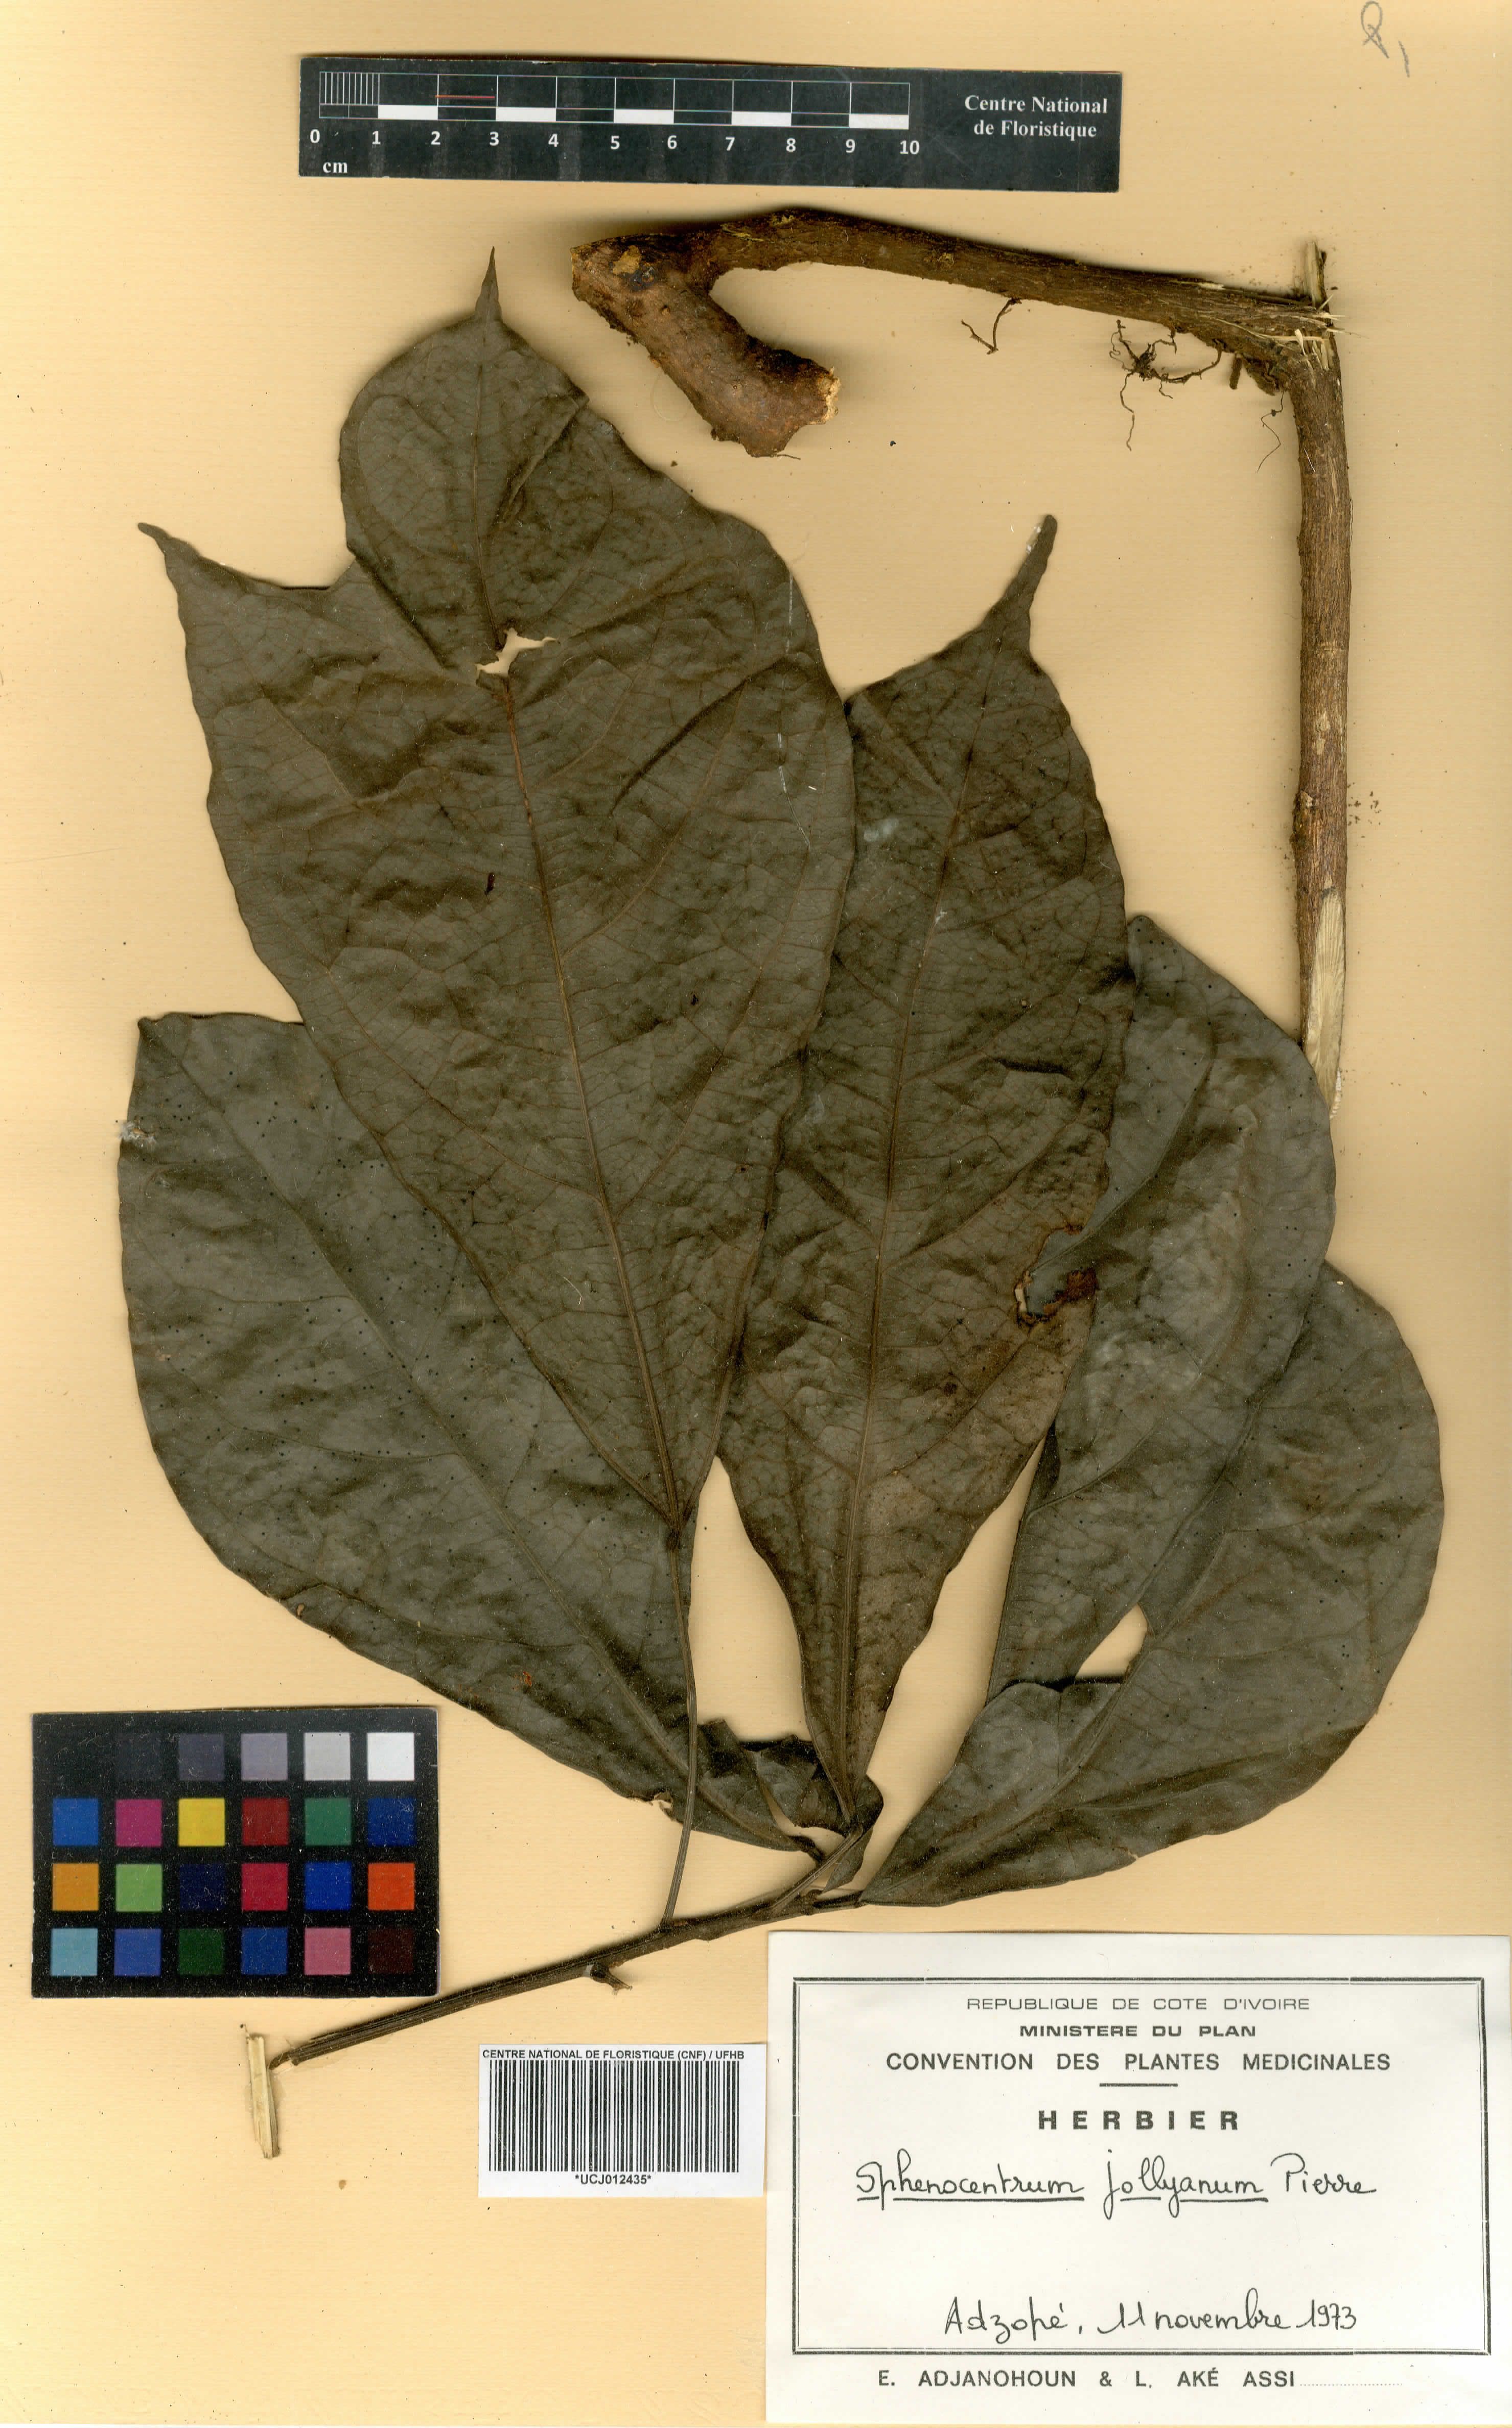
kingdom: Plantae
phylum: Tracheophyta
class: Magnoliopsida
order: Ranunculales
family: Menispermaceae
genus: Sphenocentrum
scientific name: Sphenocentrum jollyanum
